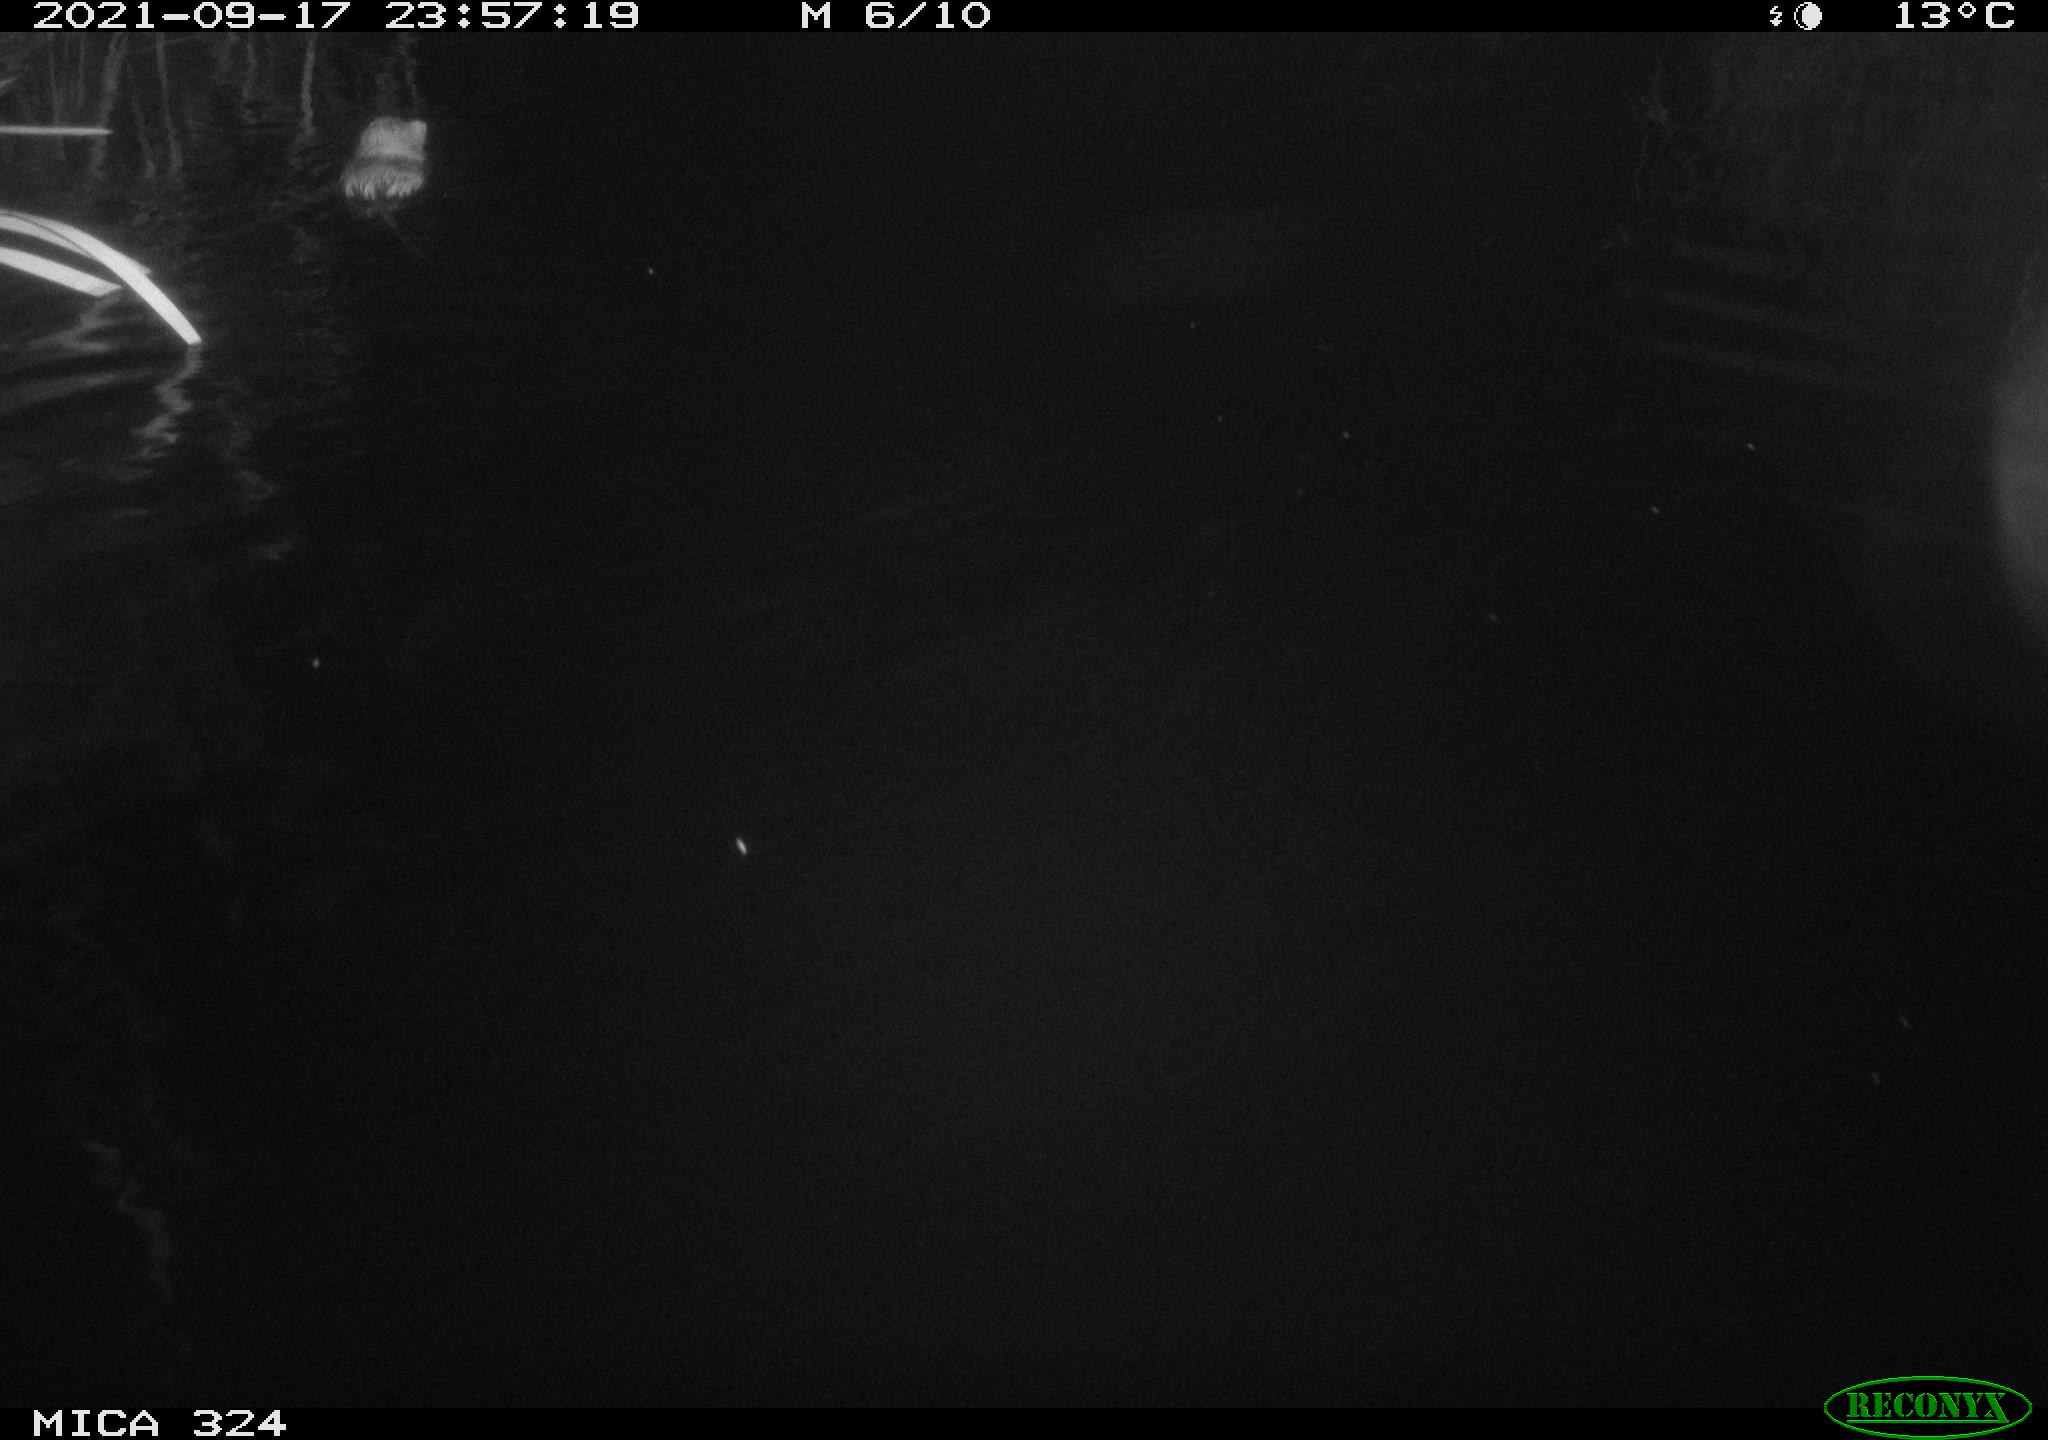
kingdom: Animalia
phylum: Chordata
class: Mammalia
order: Rodentia
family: Cricetidae
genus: Ondatra
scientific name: Ondatra zibethicus
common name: Muskrat
